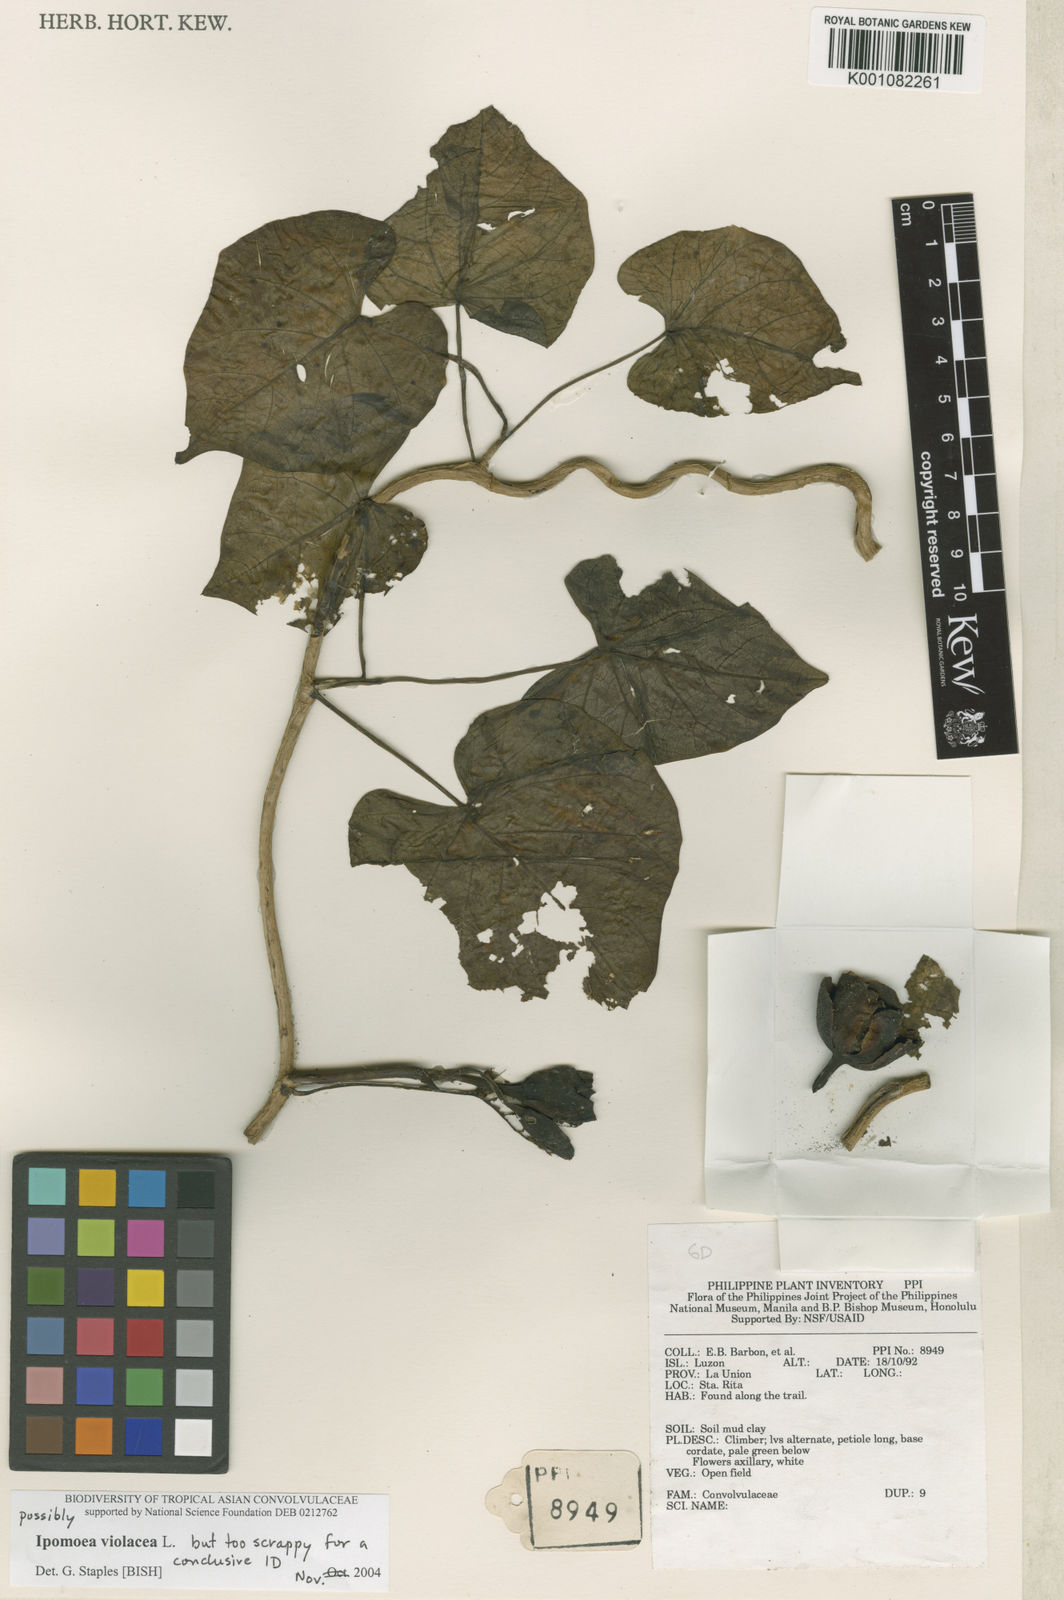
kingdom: Plantae
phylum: Tracheophyta
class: Magnoliopsida
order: Solanales
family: Convolvulaceae
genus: Ipomoea
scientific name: Ipomoea violacea
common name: Beach moonflower
